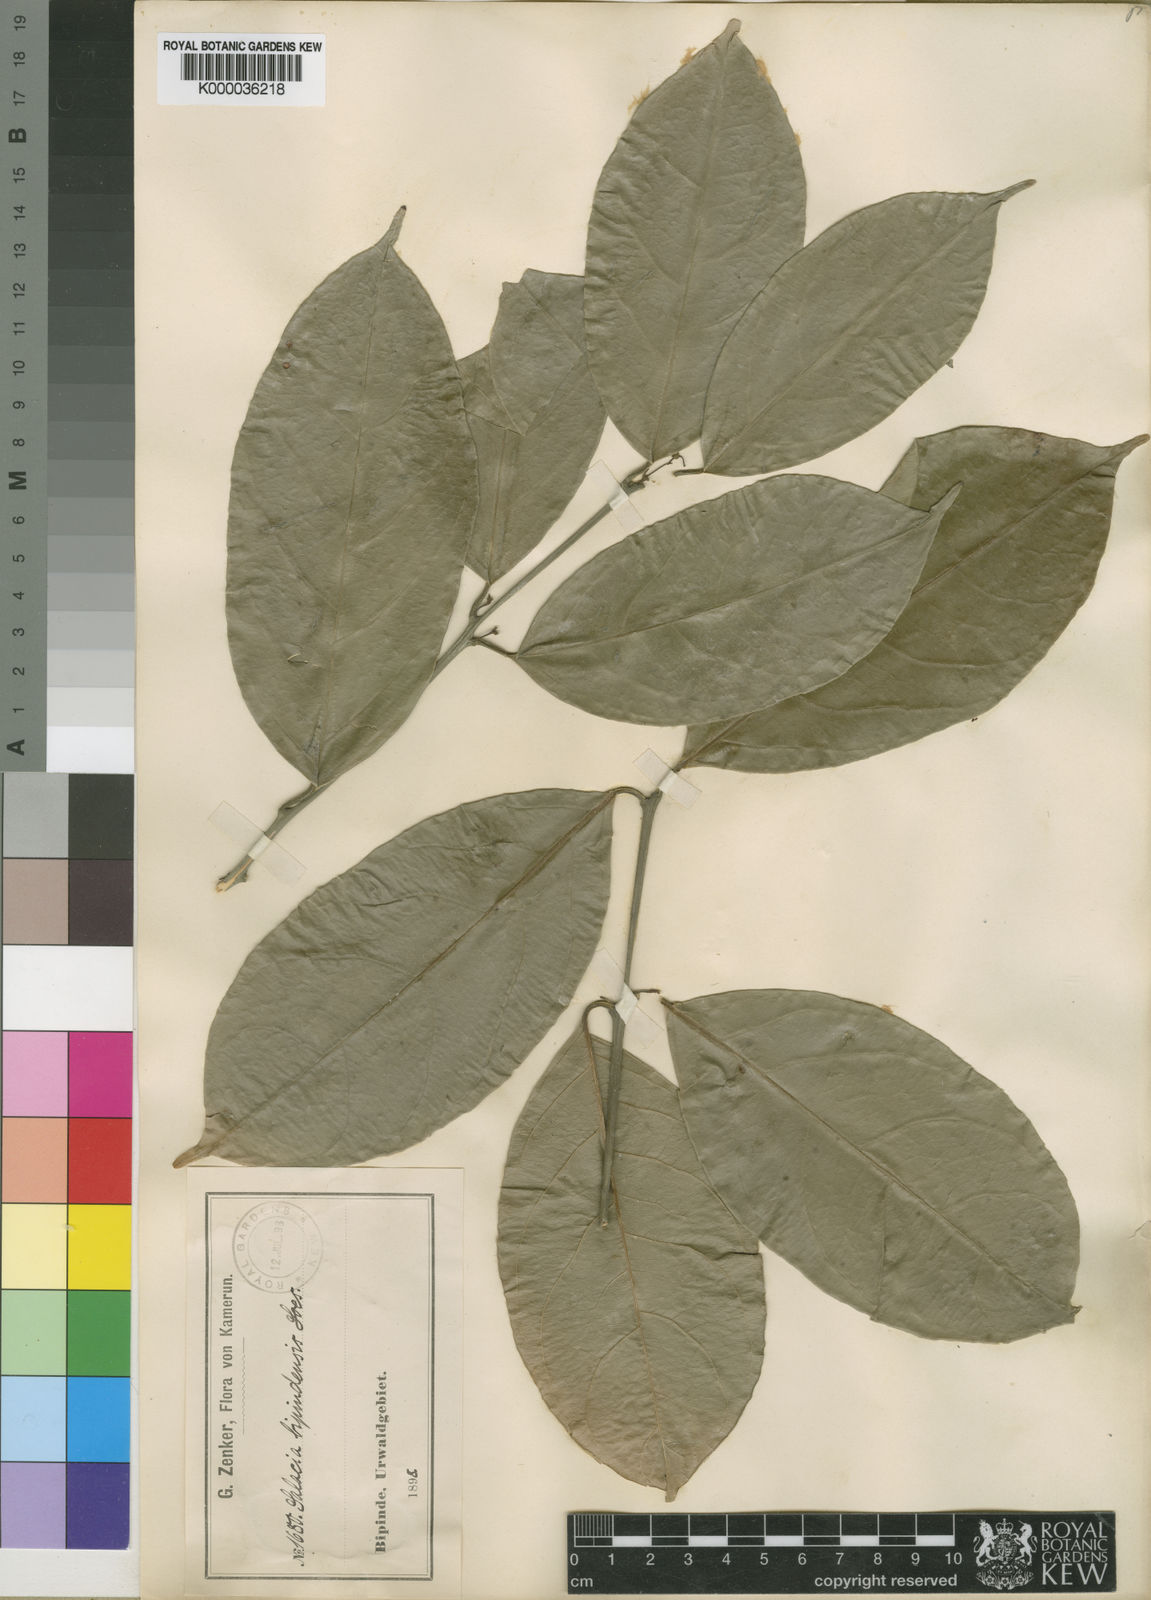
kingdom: Plantae
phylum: Tracheophyta
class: Magnoliopsida
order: Celastrales
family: Celastraceae
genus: Salacia
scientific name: Salacia nitida
